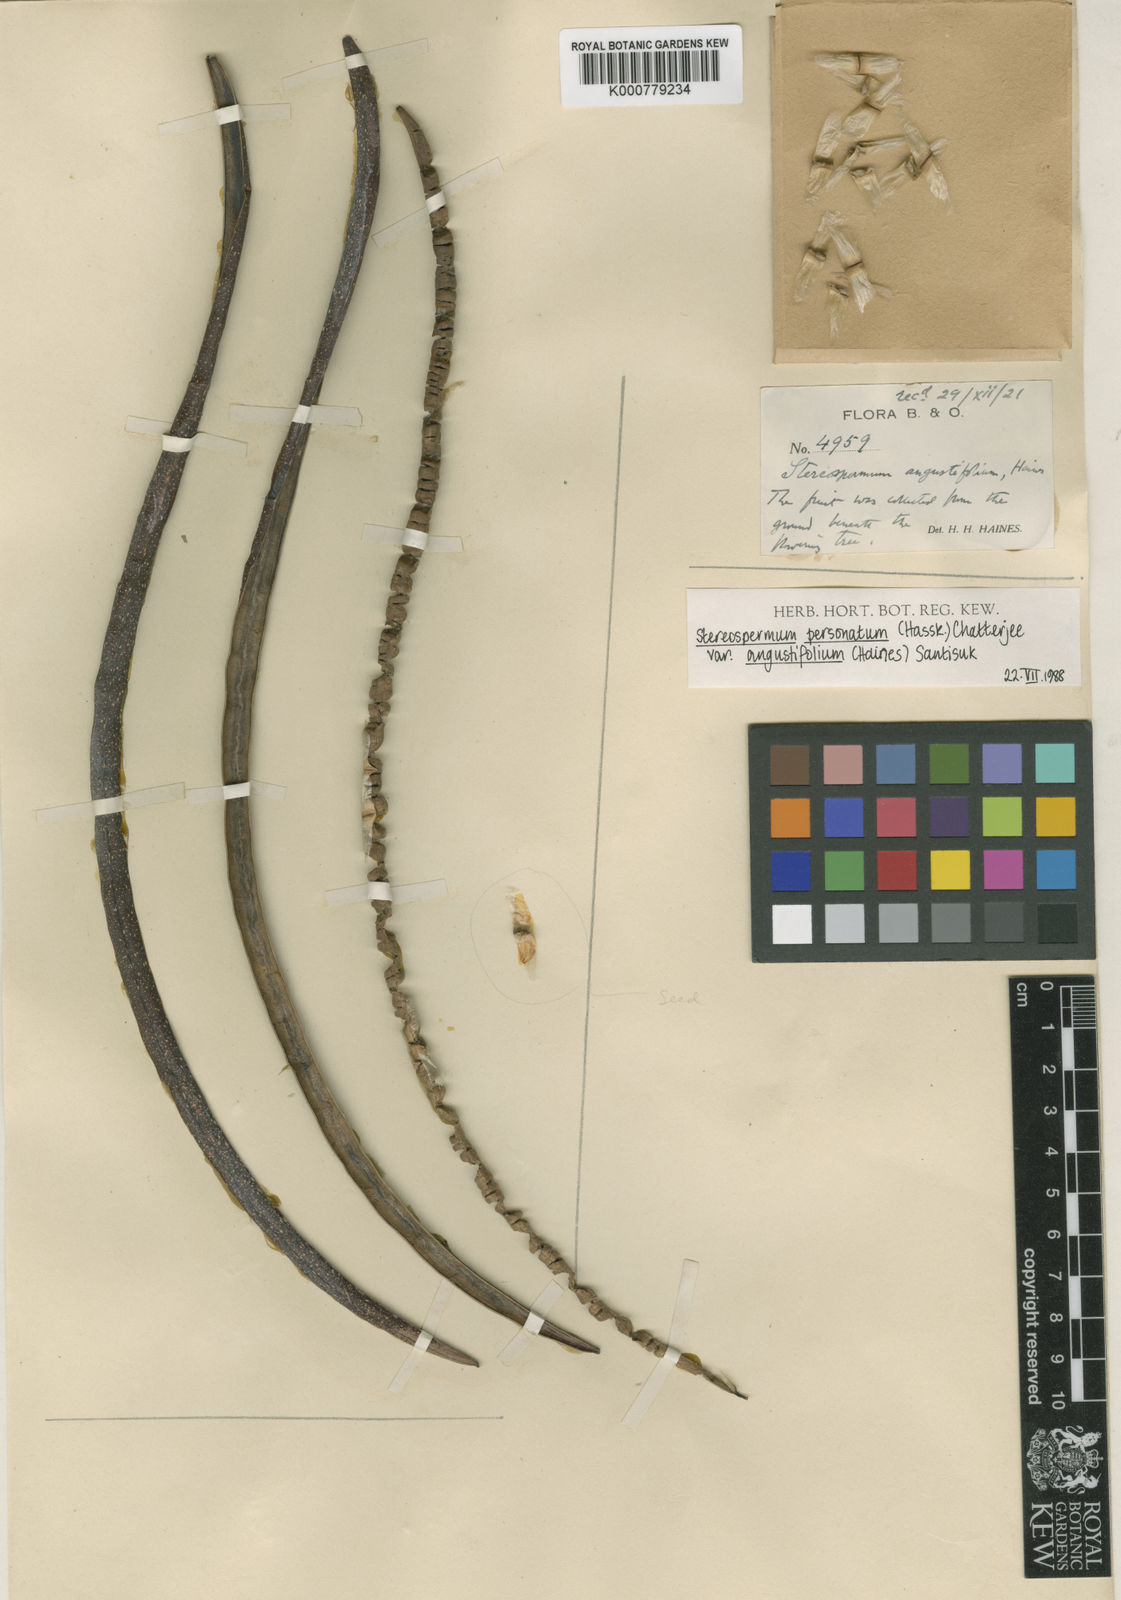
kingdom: Plantae
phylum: Tracheophyta
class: Magnoliopsida
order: Lamiales
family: Bignoniaceae
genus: Stereospermum
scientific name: Stereospermum angustifolium
